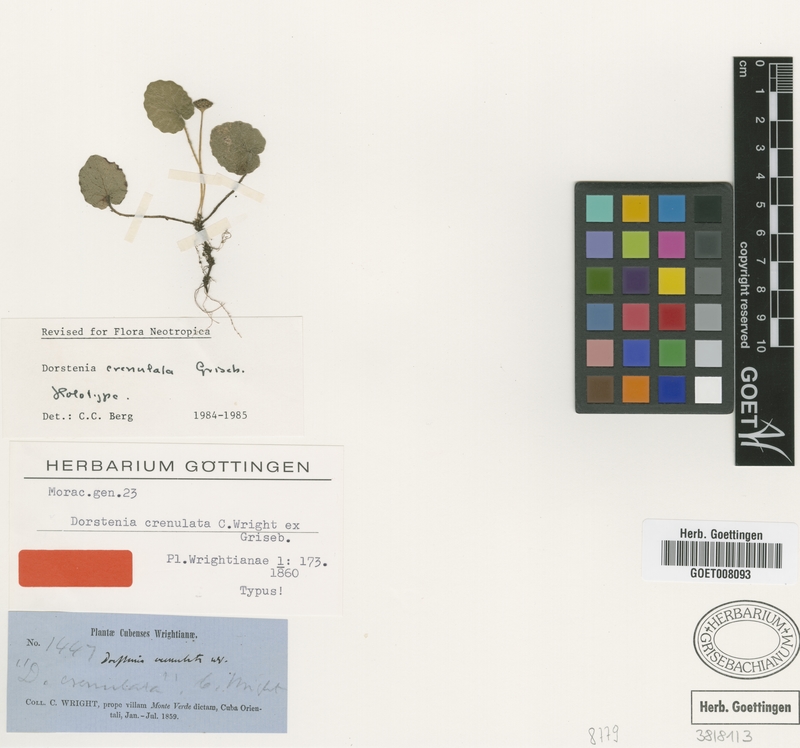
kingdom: Plantae
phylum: Tracheophyta
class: Magnoliopsida
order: Rosales
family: Moraceae
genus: Dorstenia
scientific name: Dorstenia crenulata
